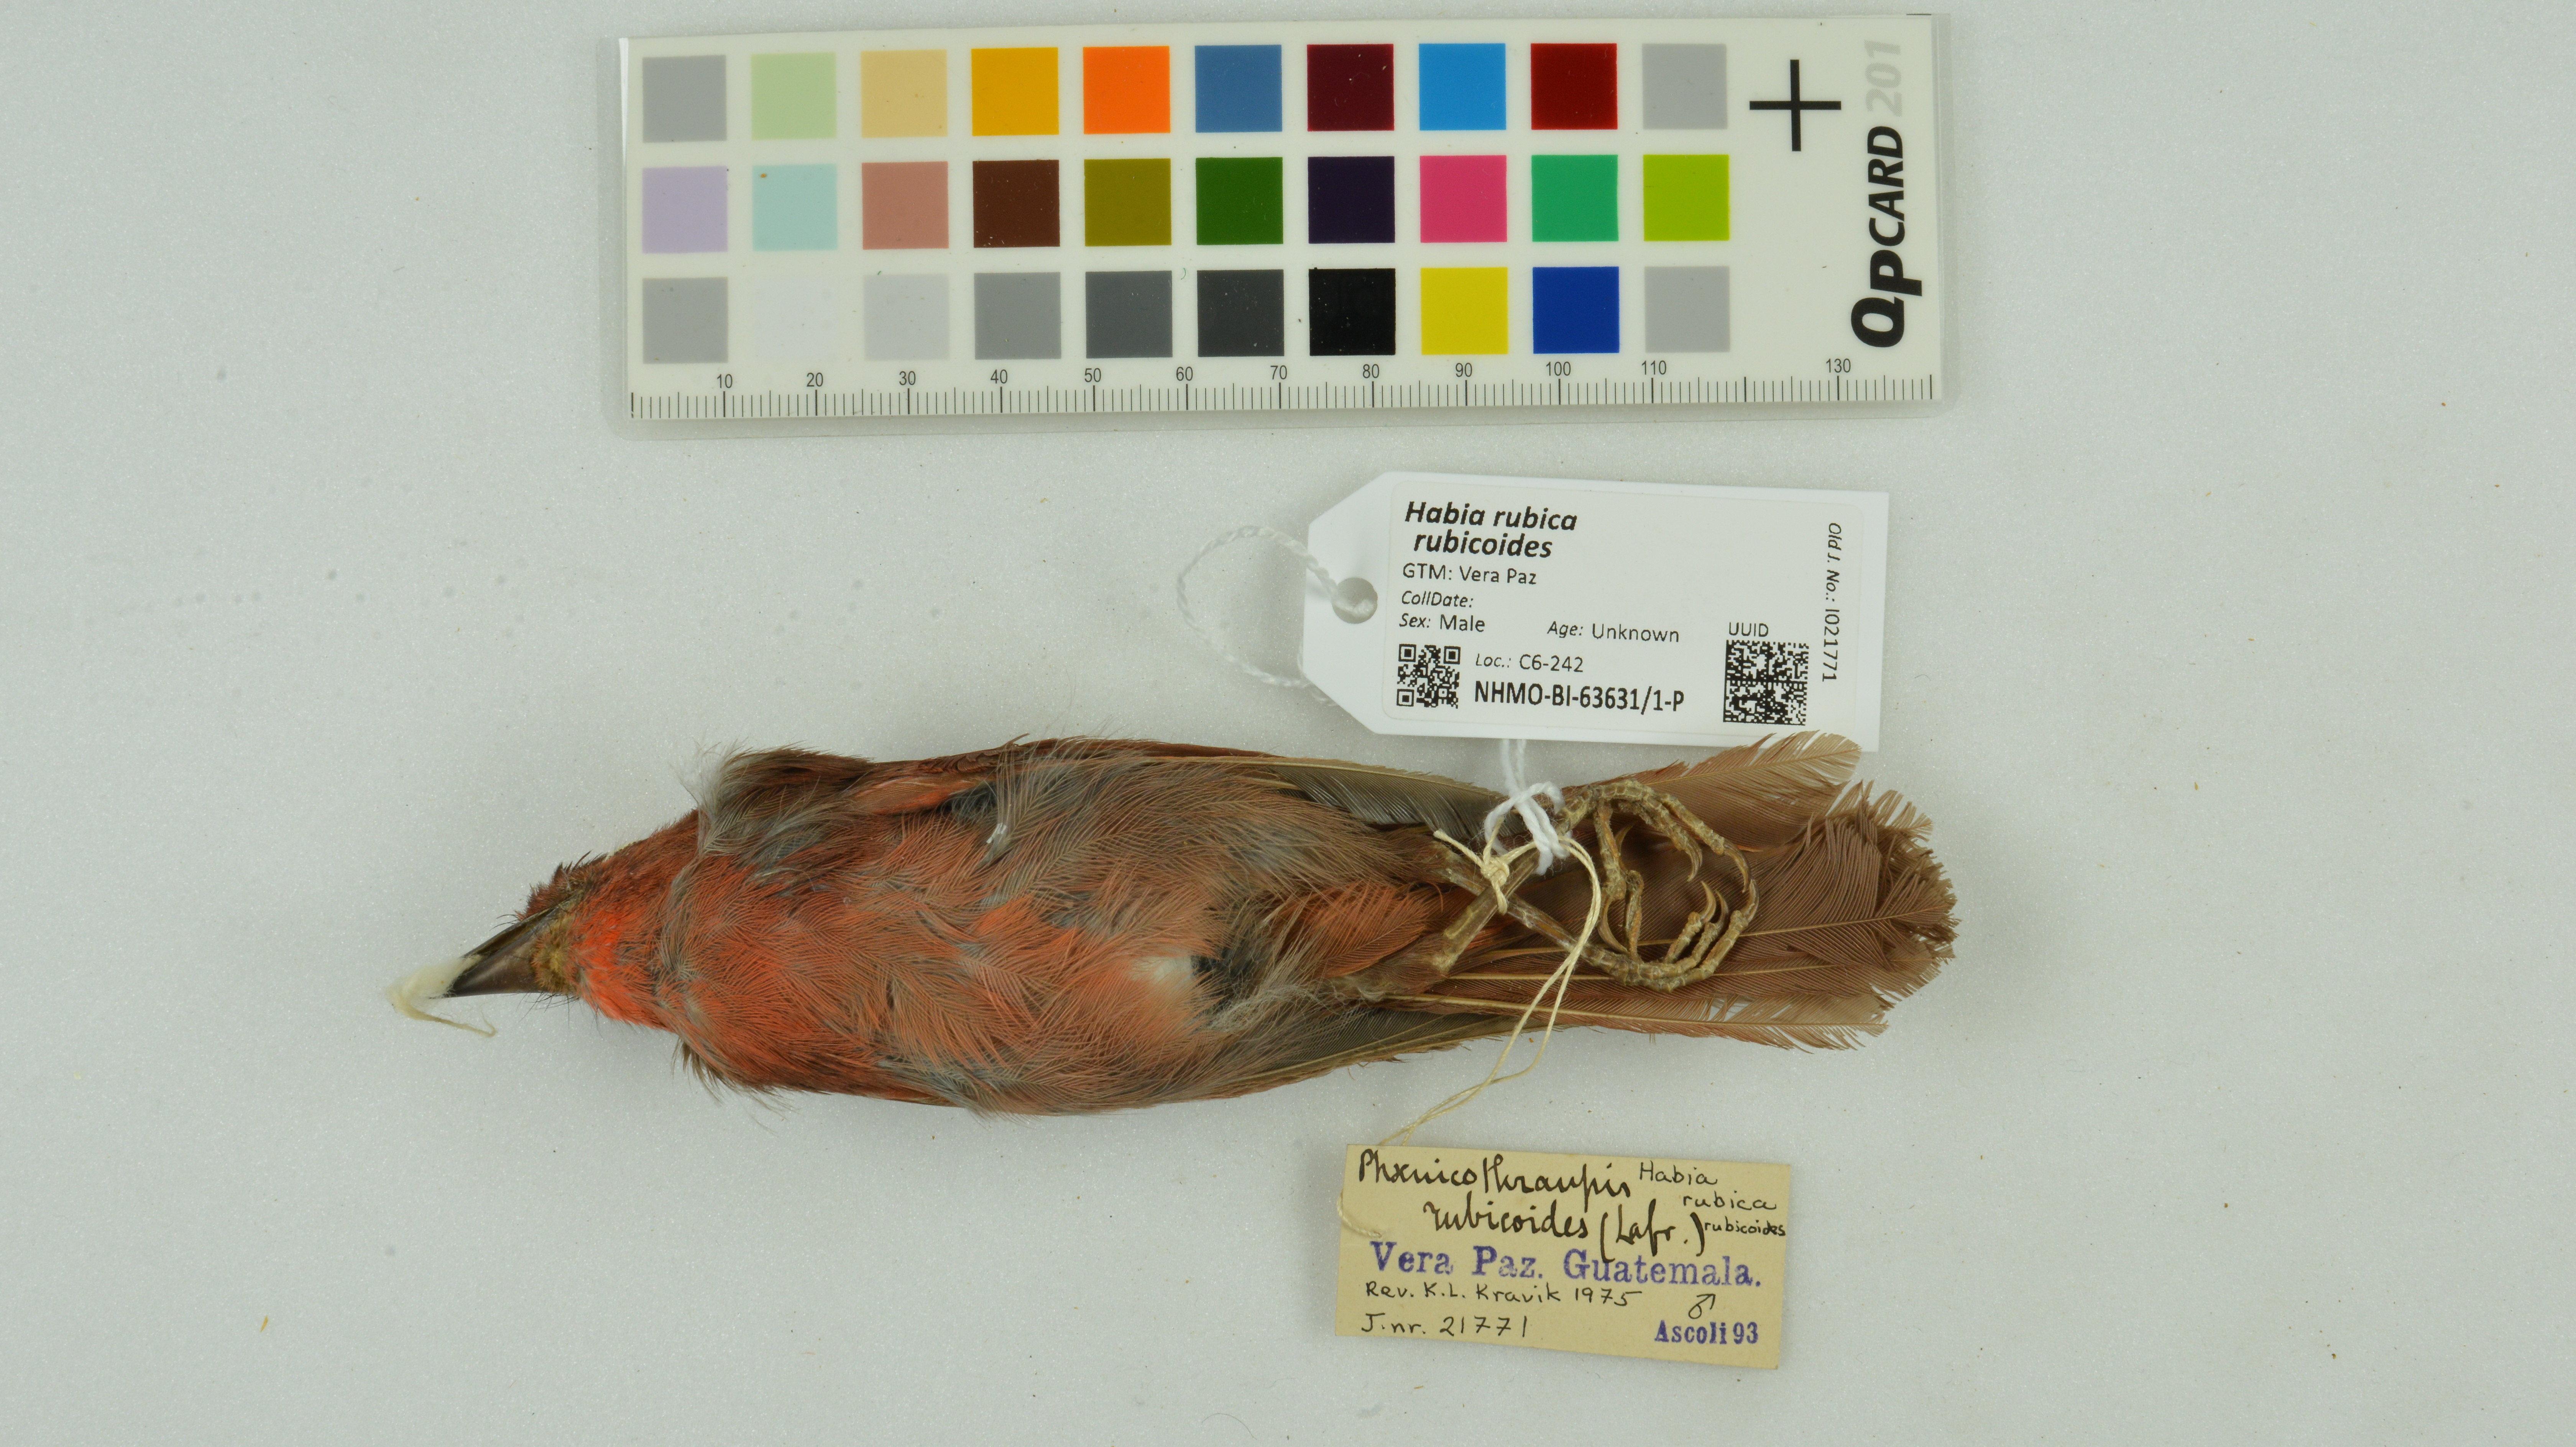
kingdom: Animalia
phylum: Chordata
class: Aves
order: Passeriformes
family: Cardinalidae
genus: Habia
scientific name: Habia rubica
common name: Red-crowned ant-tanager
